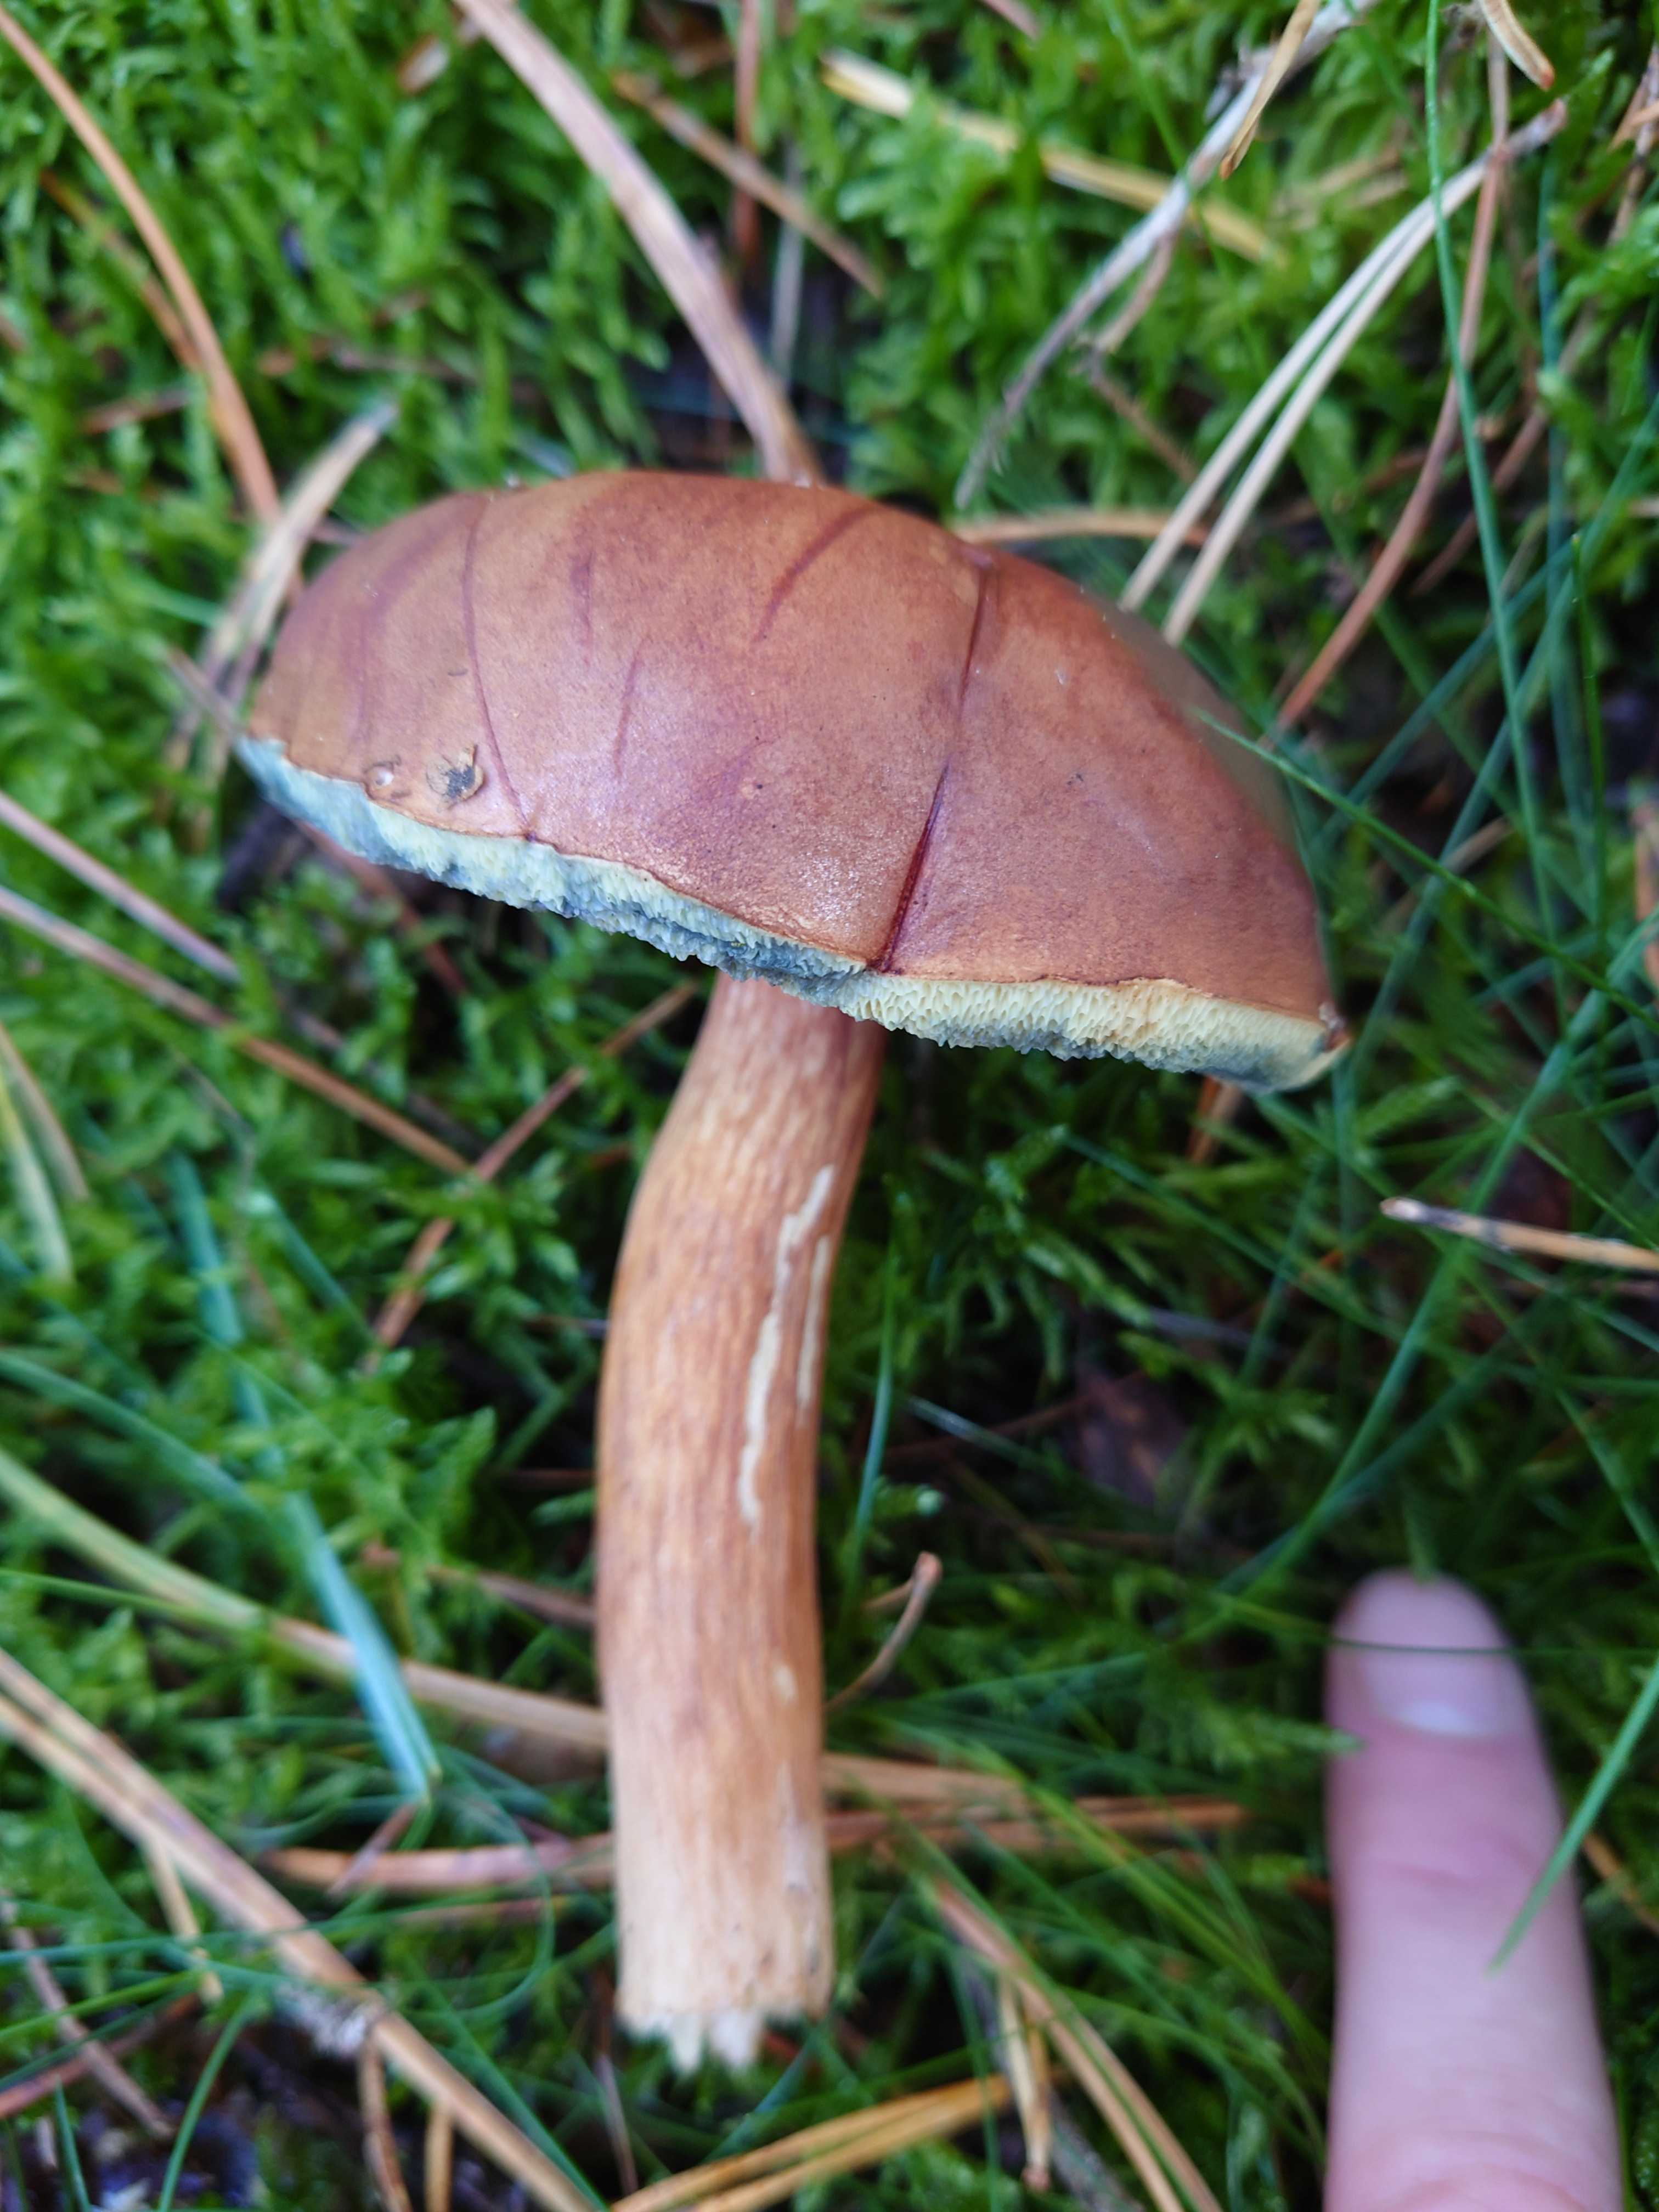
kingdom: Fungi
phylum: Basidiomycota
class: Agaricomycetes
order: Boletales
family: Boletaceae
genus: Imleria
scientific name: Imleria badia
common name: brunstokket rørhat
